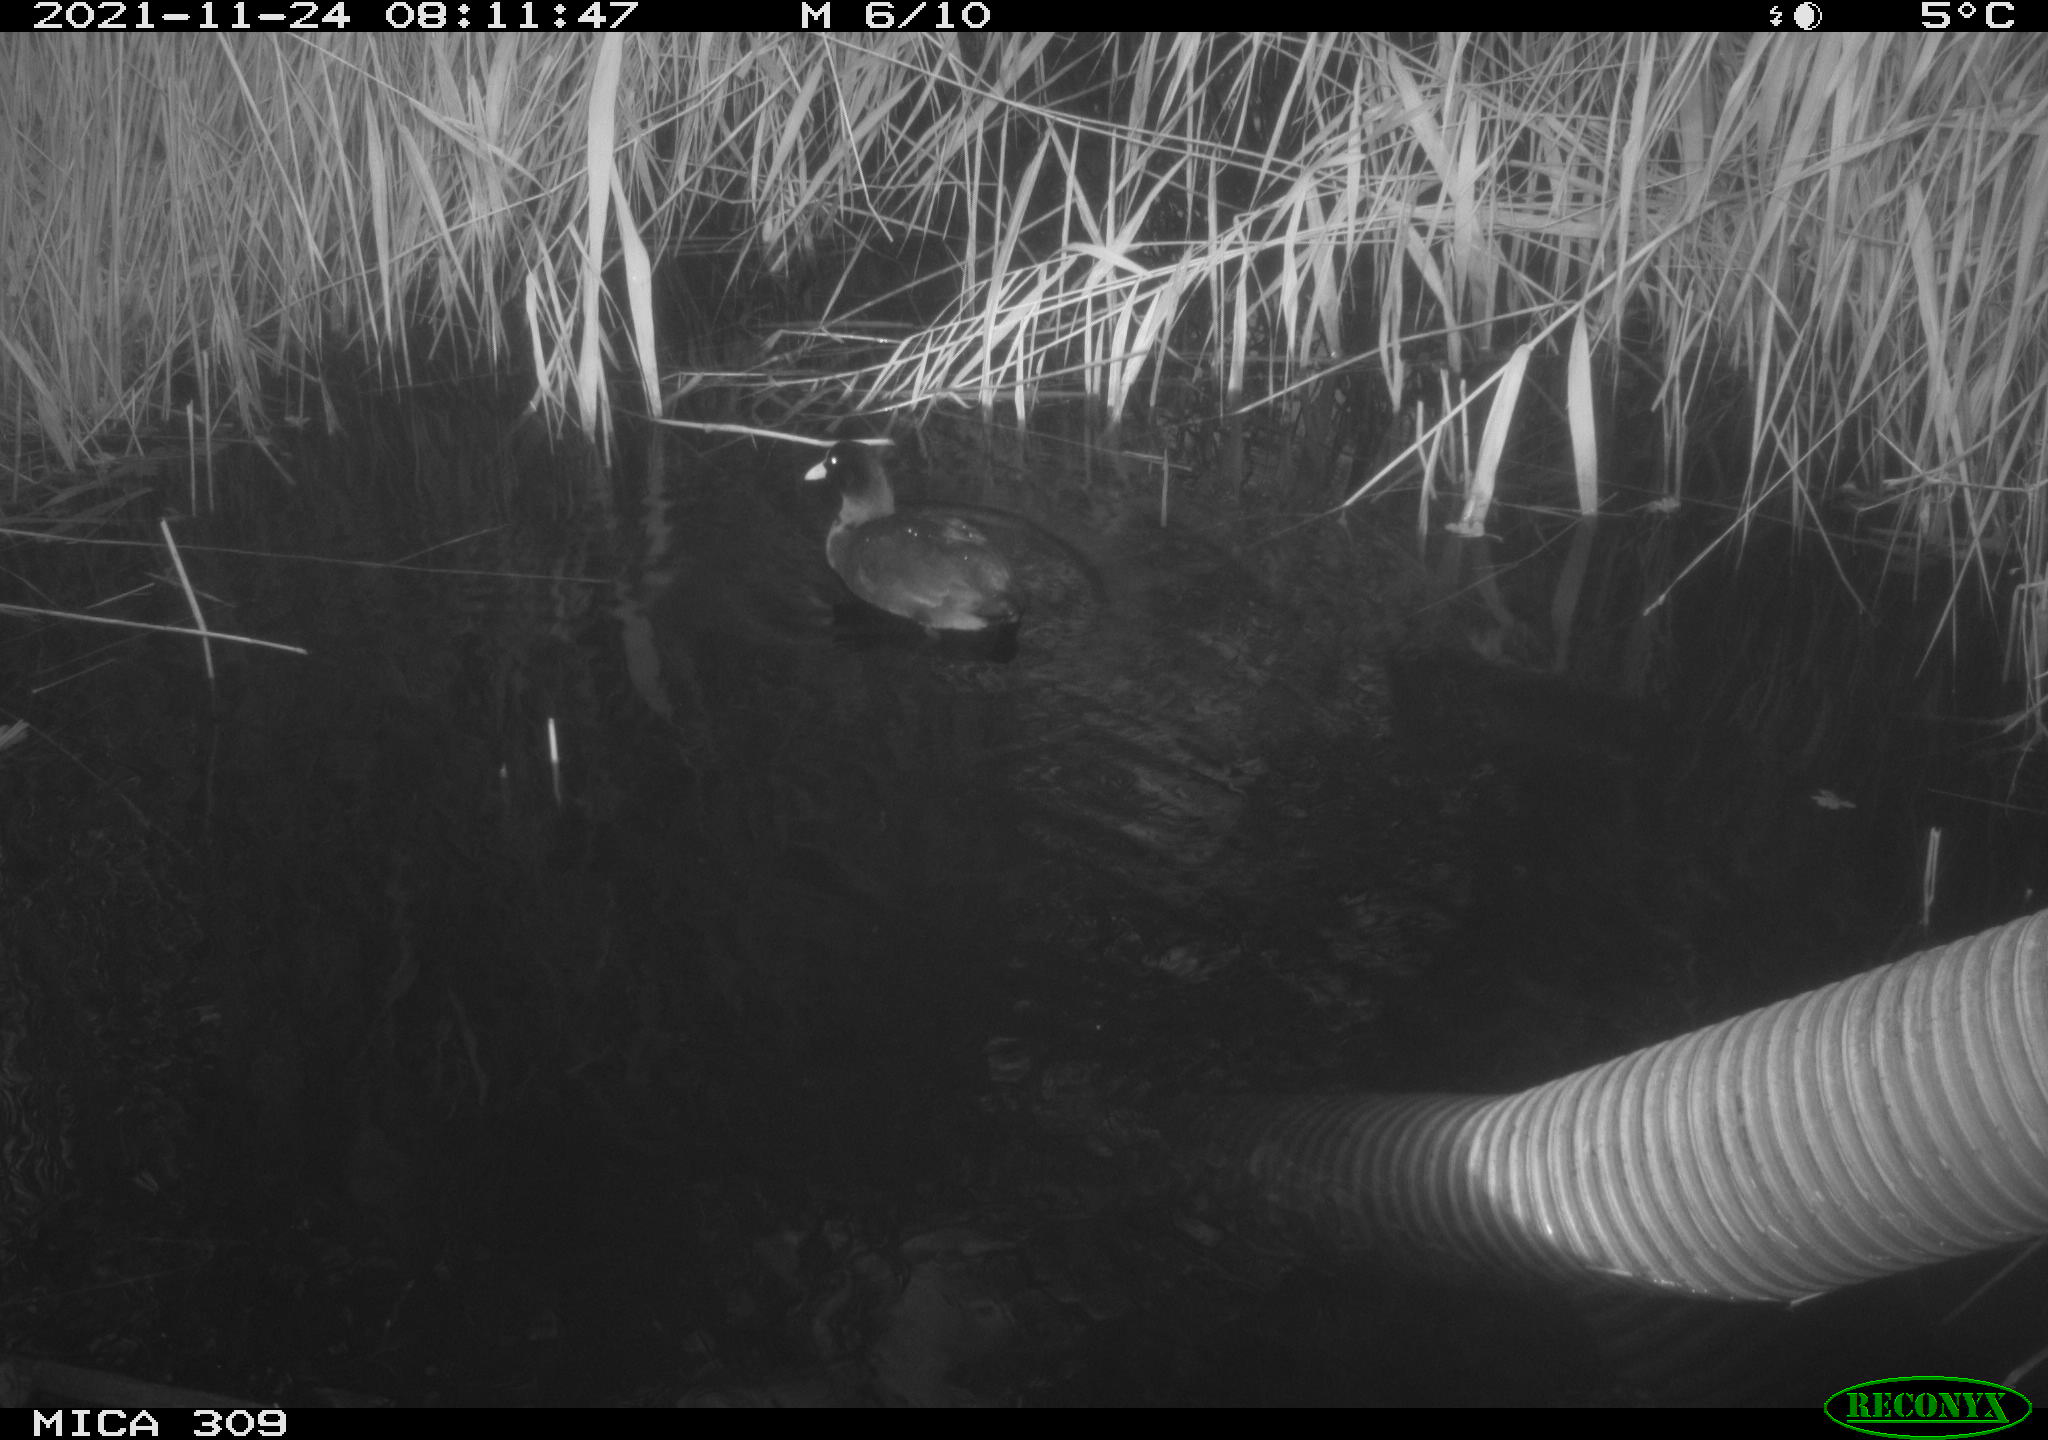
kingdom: Animalia
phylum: Chordata
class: Aves
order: Gruiformes
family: Rallidae
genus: Fulica
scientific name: Fulica atra
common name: Eurasian coot
